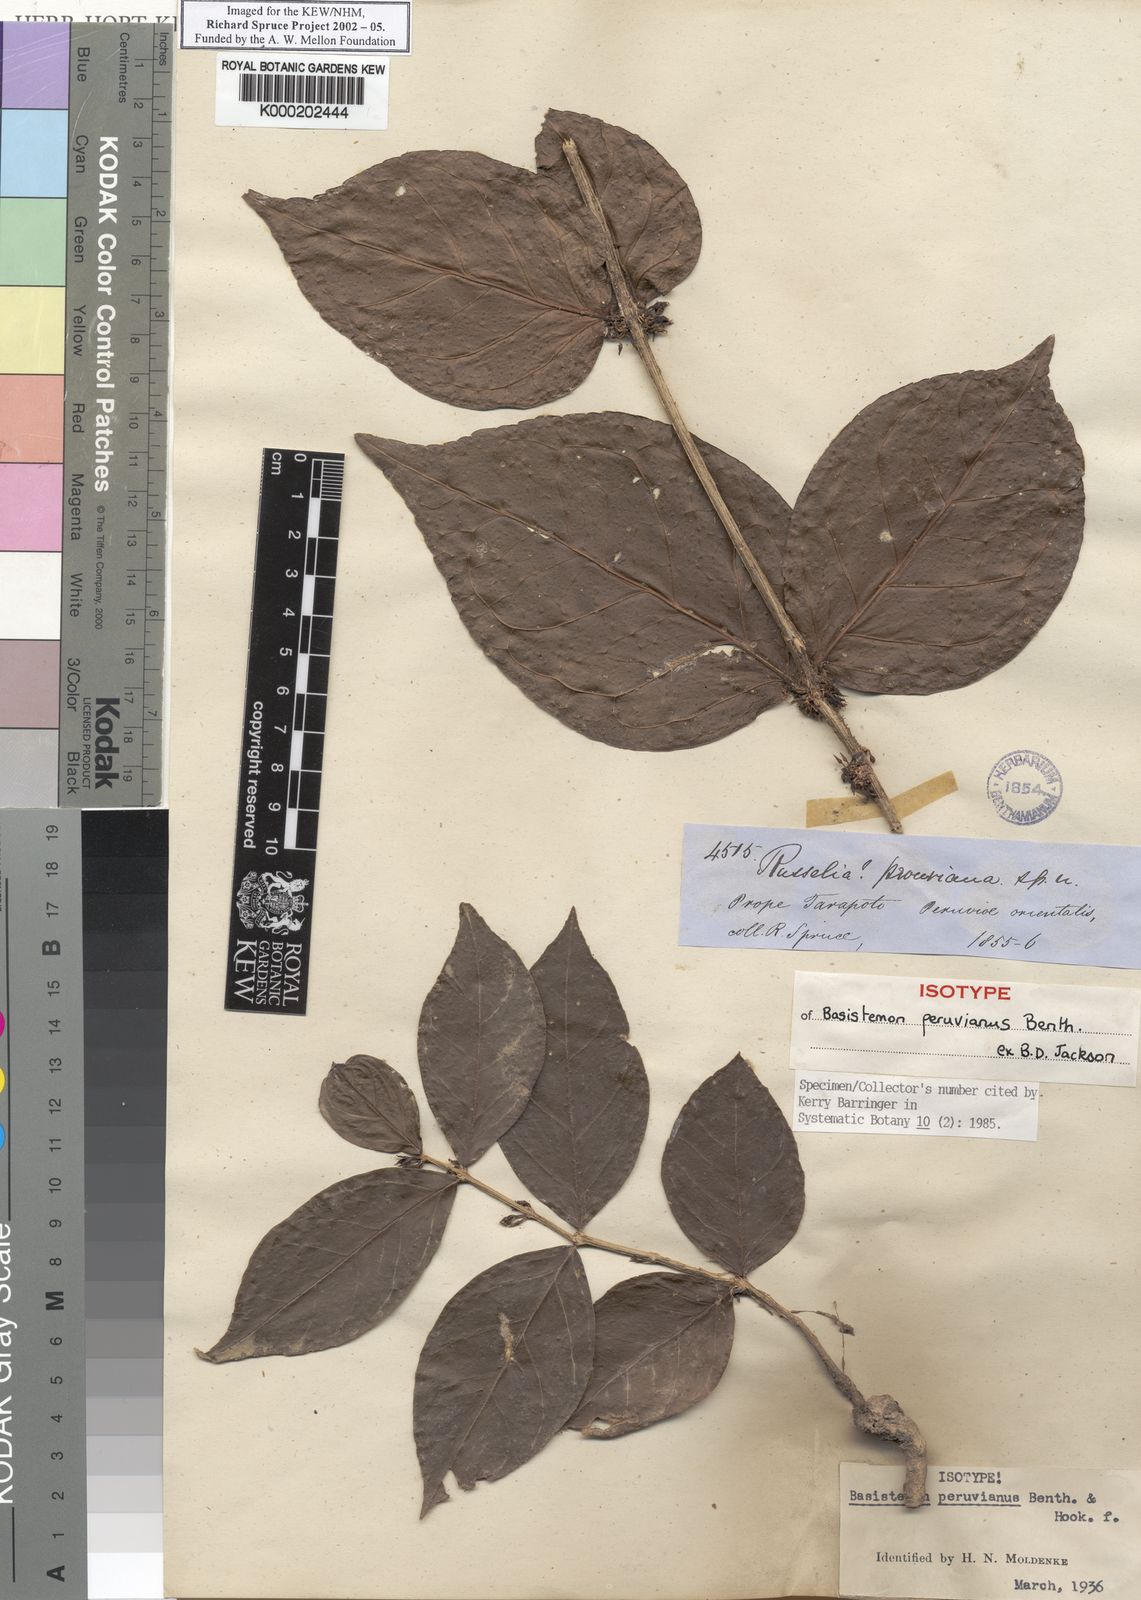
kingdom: Plantae
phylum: Tracheophyta
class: Magnoliopsida
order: Lamiales
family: Plantaginaceae
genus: Basistemon
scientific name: Basistemon
